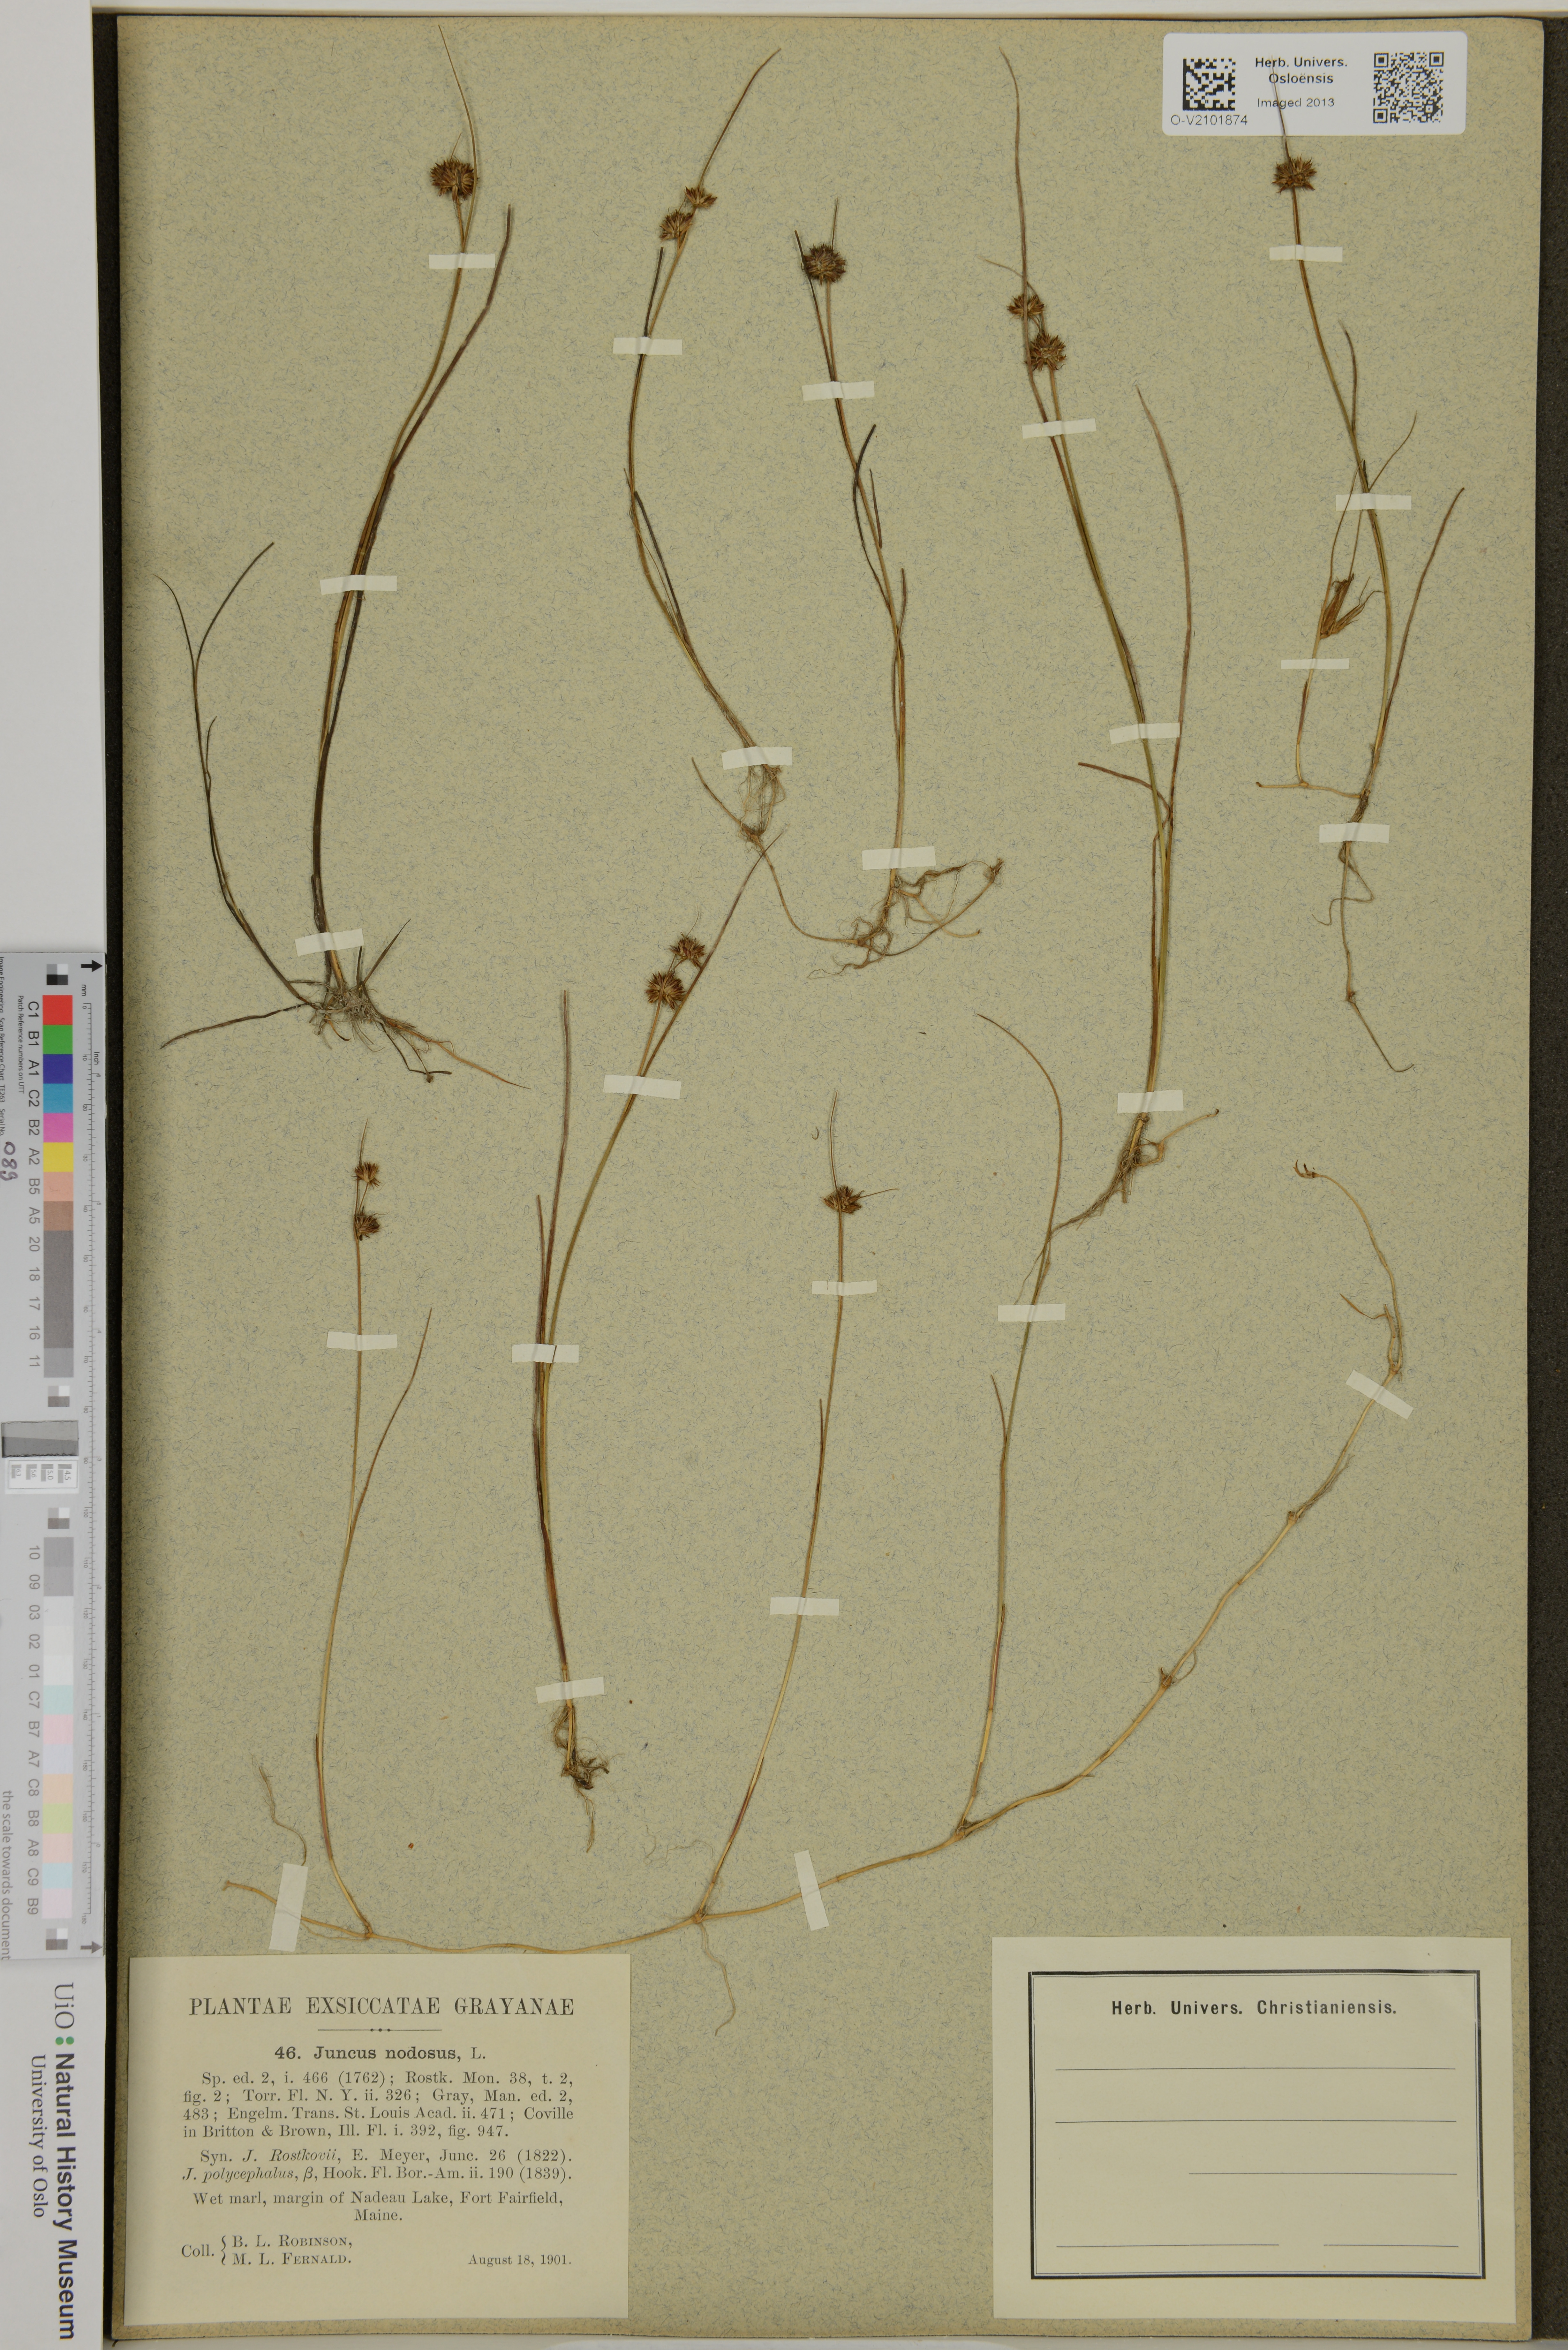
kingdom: Plantae
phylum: Tracheophyta
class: Liliopsida
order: Poales
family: Juncaceae
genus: Juncus
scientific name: Juncus nodosus
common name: Knotted rush
